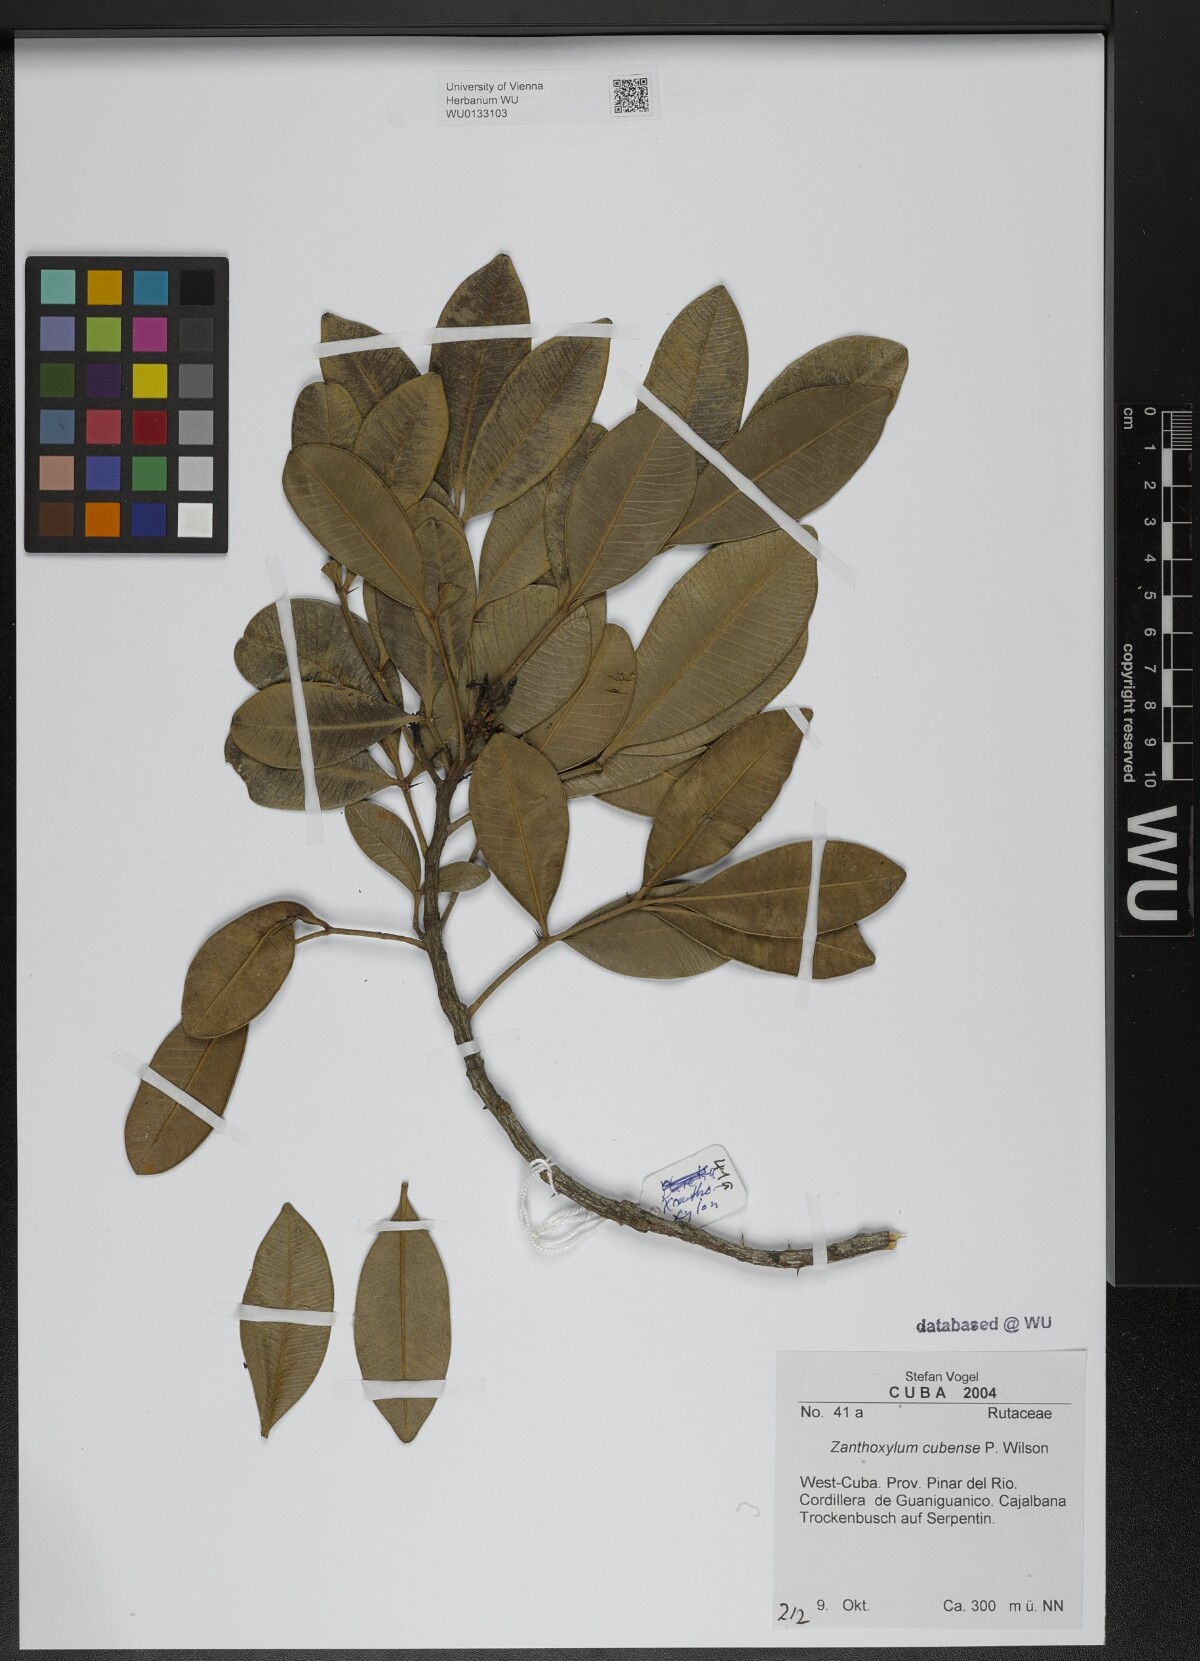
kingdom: Plantae
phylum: Tracheophyta
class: Magnoliopsida
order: Sapindales
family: Rutaceae
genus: Zanthoxylum
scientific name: Zanthoxylum rhodoxylon
